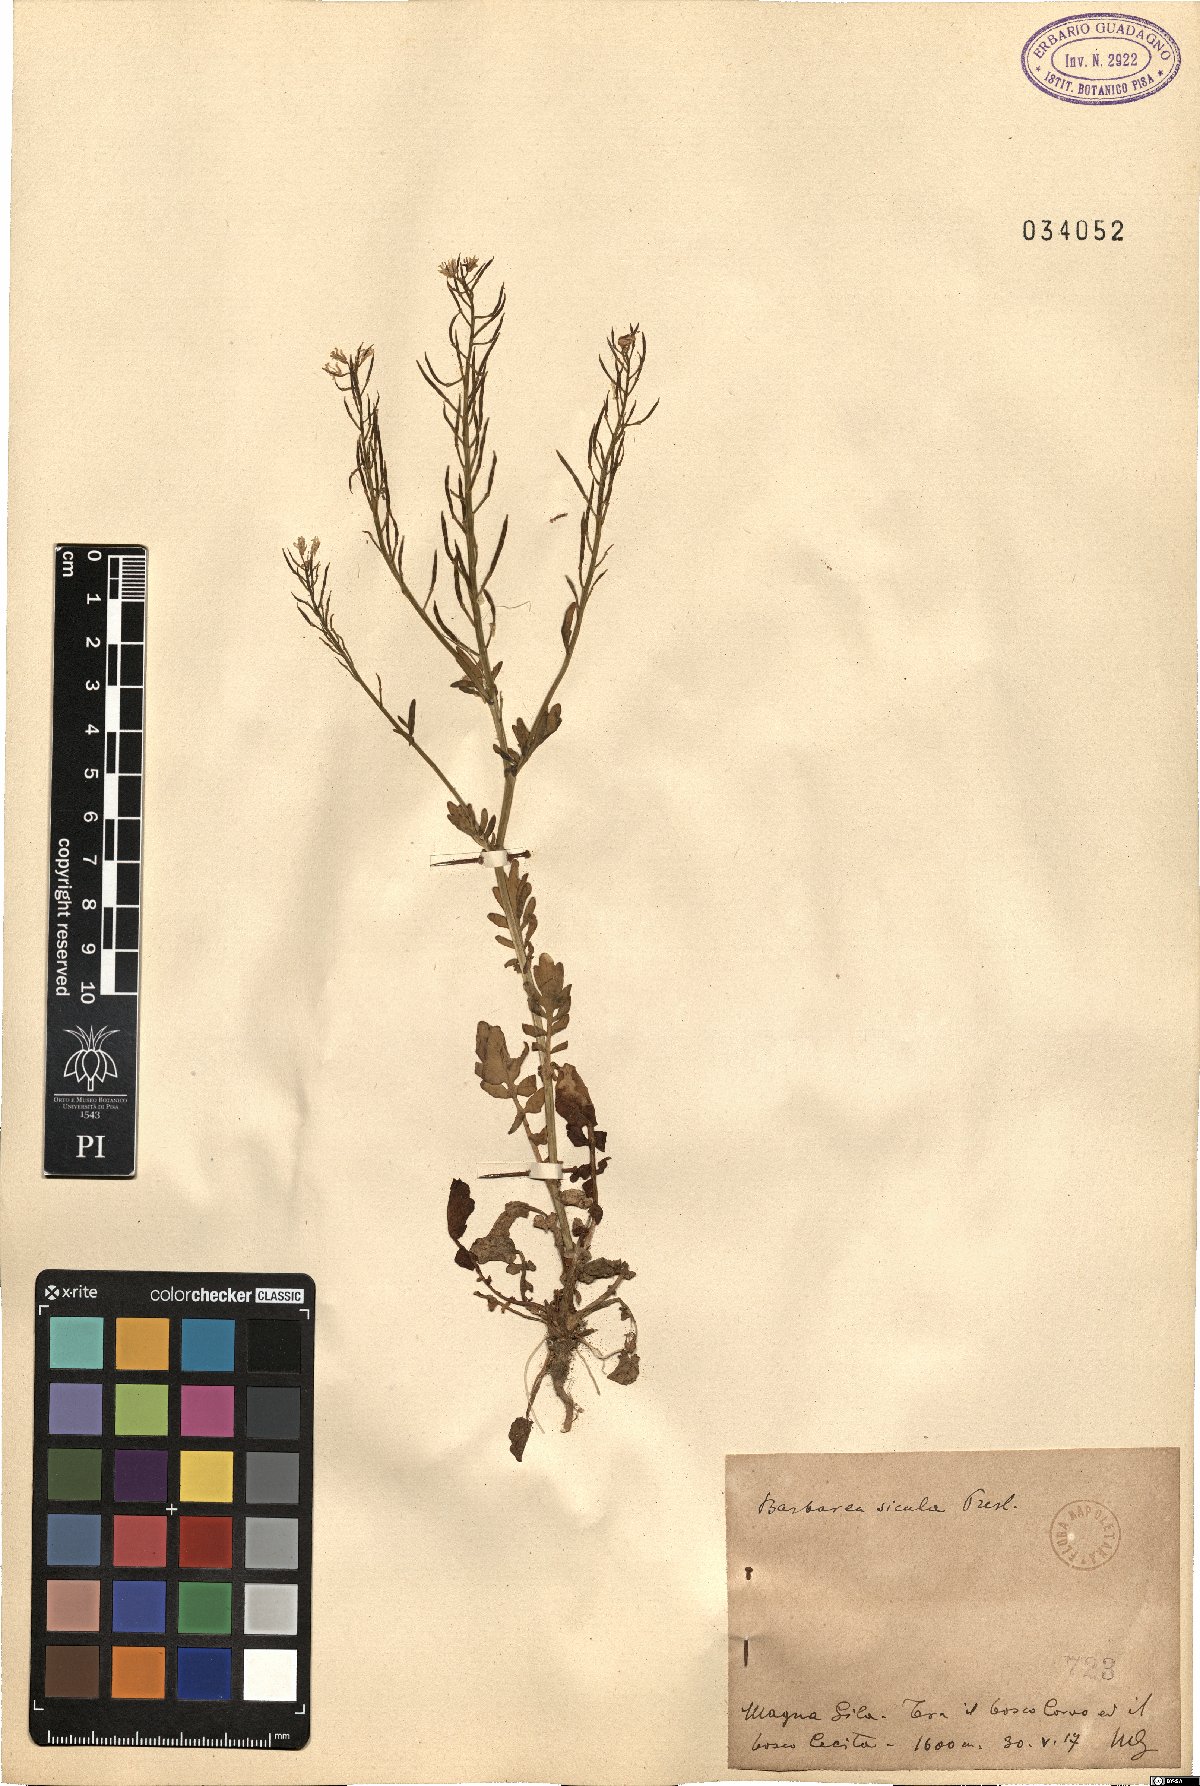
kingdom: Plantae
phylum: Tracheophyta
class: Magnoliopsida
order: Brassicales
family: Brassicaceae
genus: Barbarea
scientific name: Barbarea sicula
